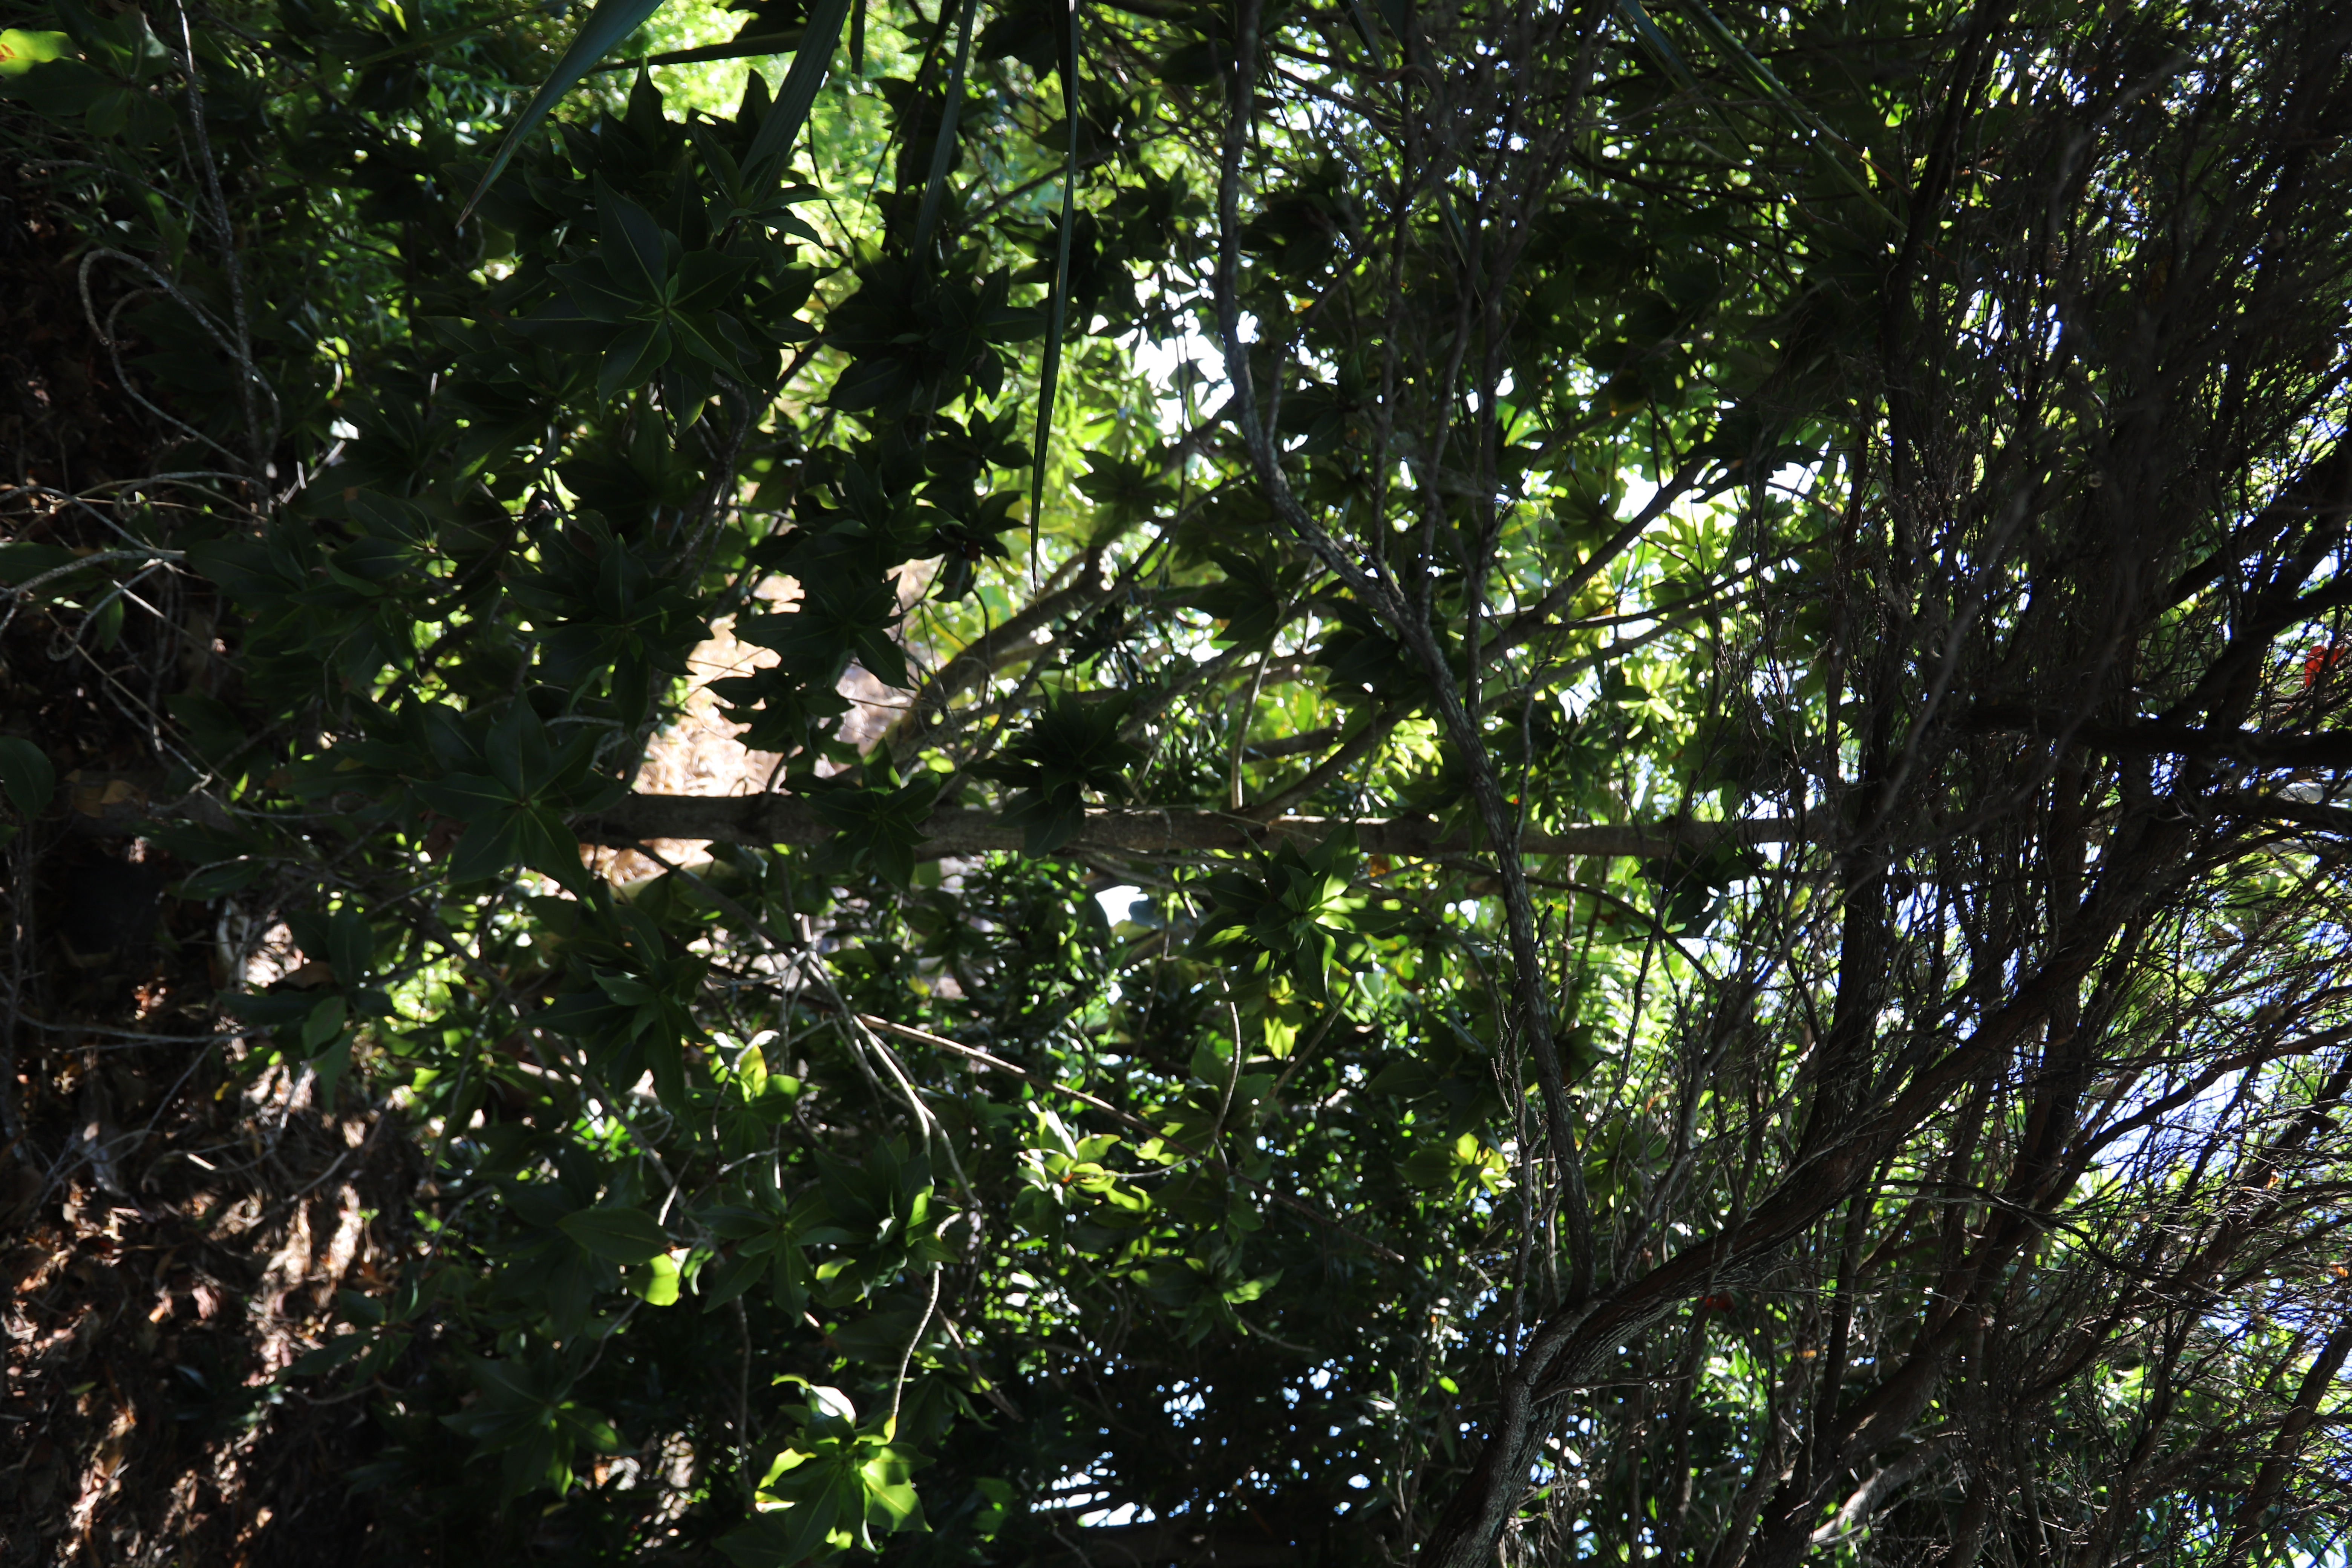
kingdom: Plantae
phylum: Tracheophyta
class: Magnoliopsida
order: Ericales
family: Lecythidaceae
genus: Foetidia
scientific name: Foetidia mauritiana
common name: Bois Puant
